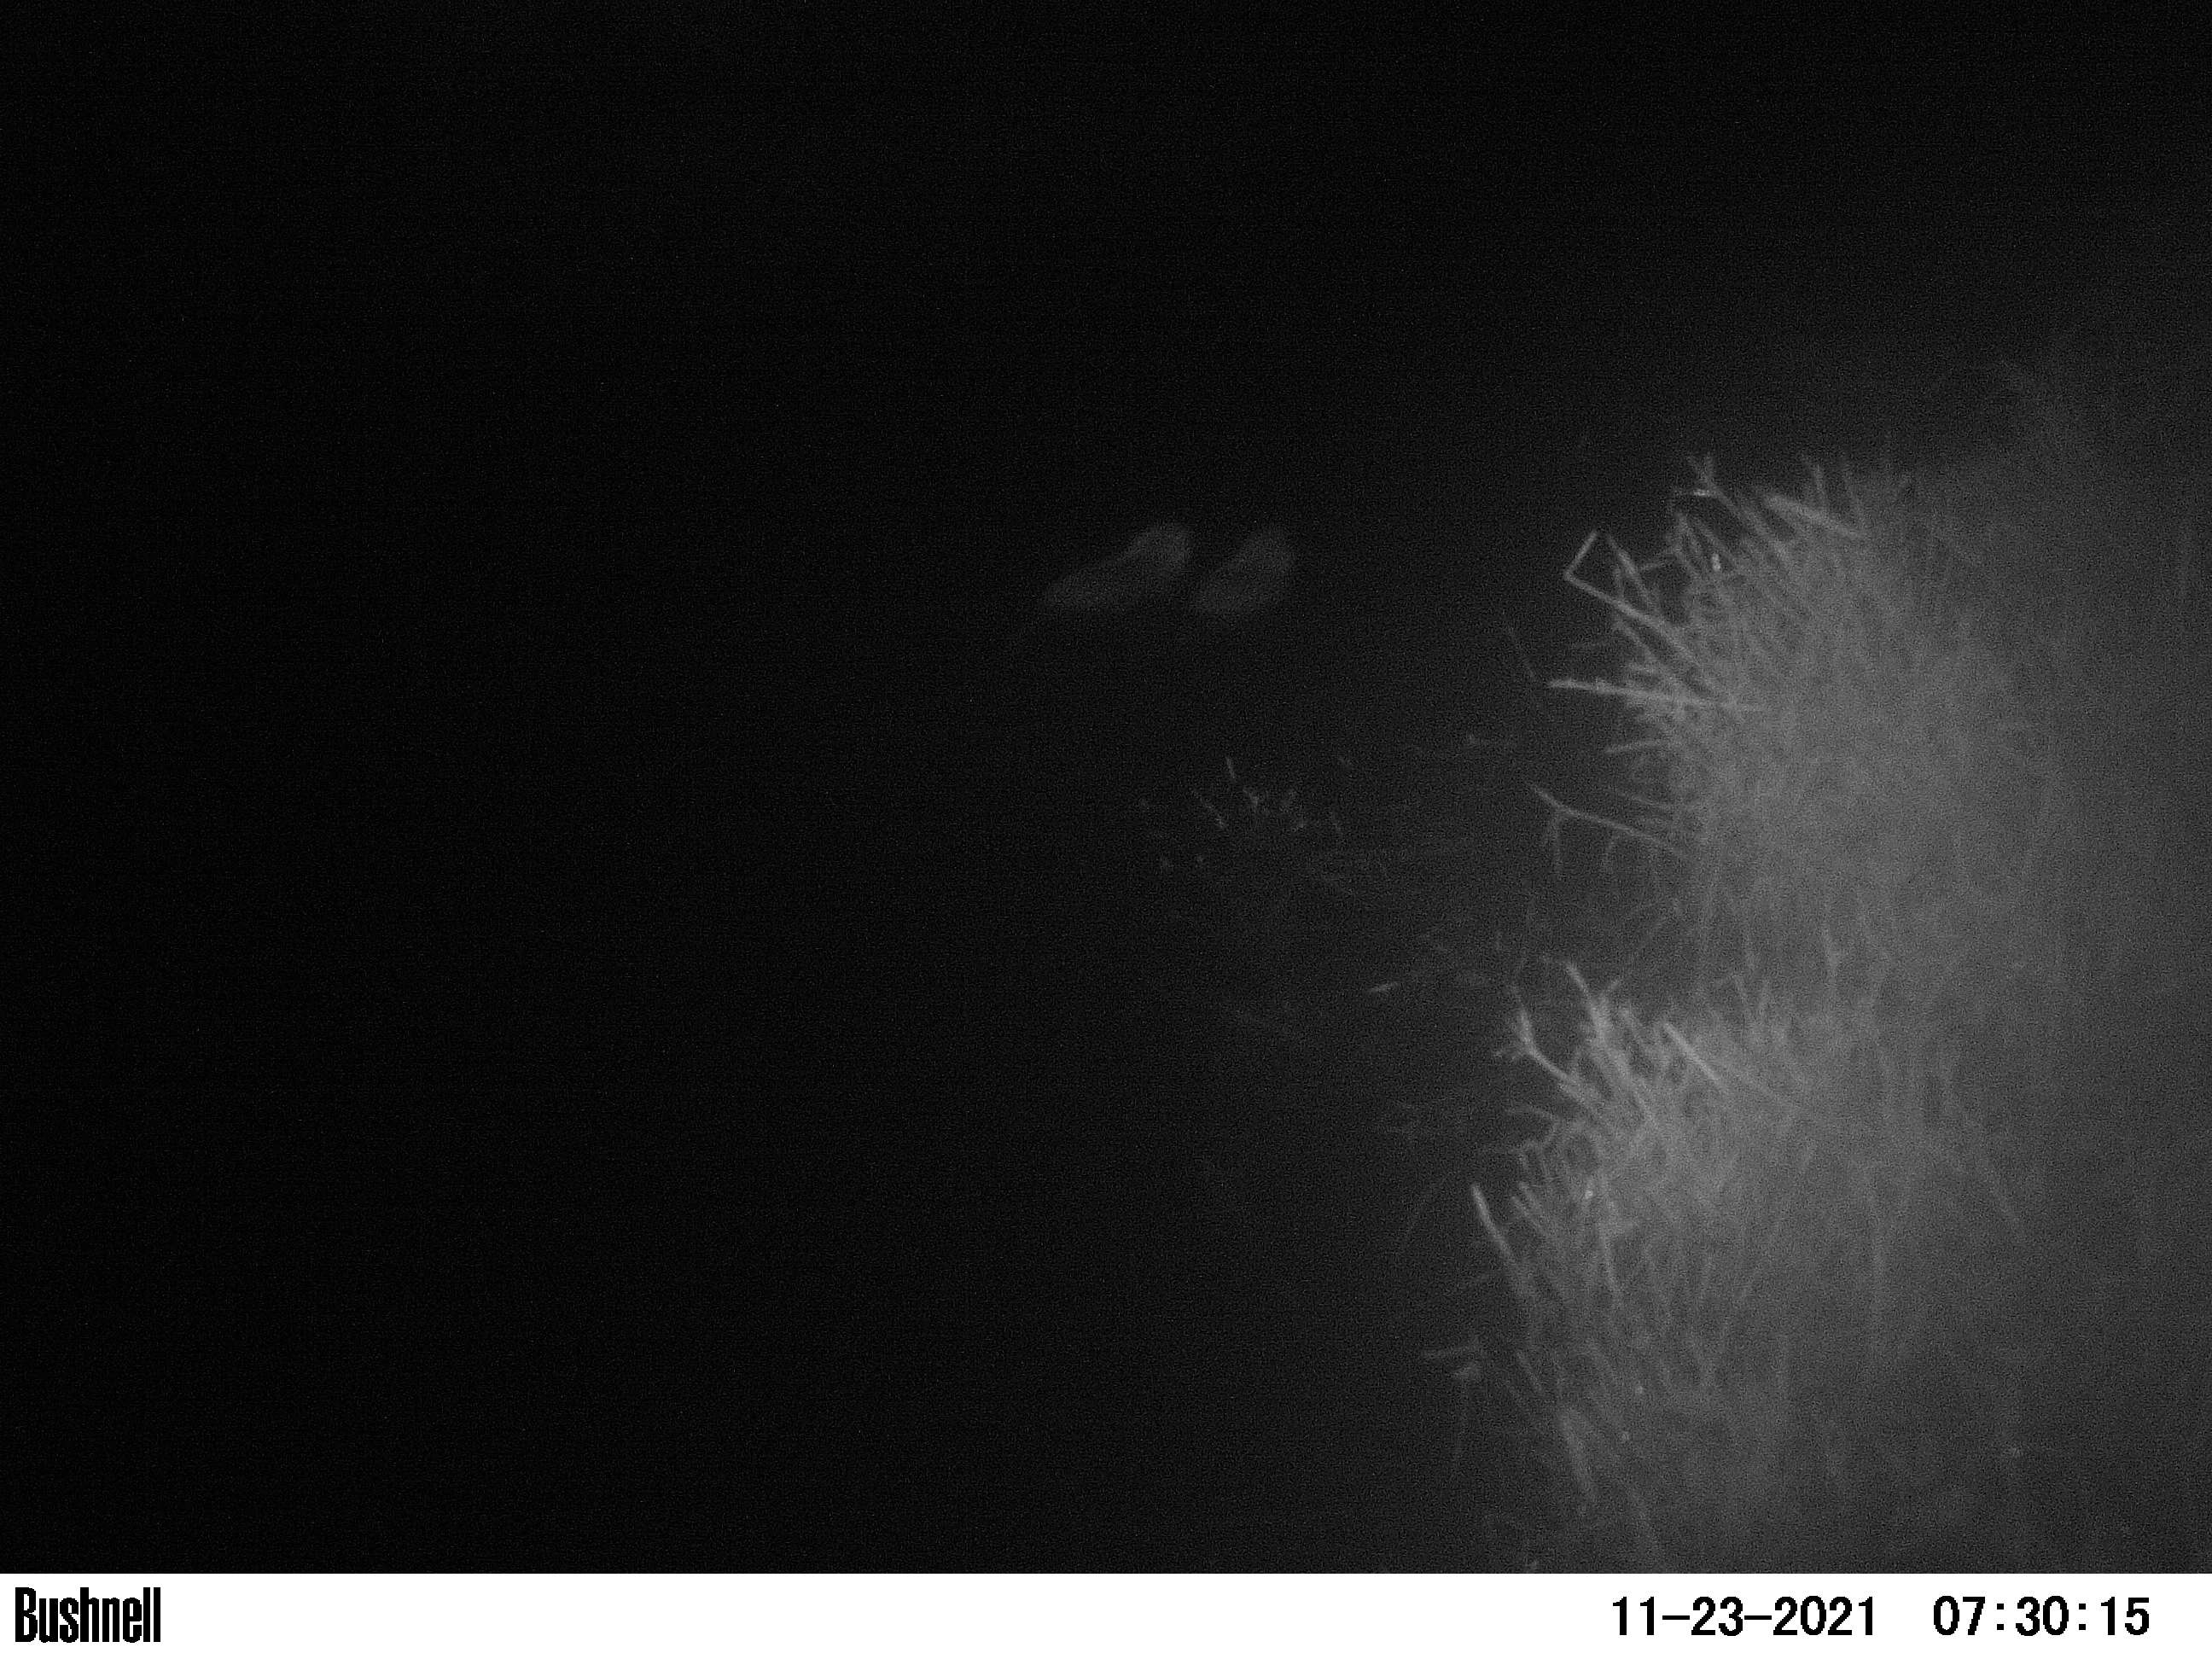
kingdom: Animalia
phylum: Chordata
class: Mammalia
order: Rodentia
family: Muridae
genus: Rattus
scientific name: Rattus norvegicus
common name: Brown rat
